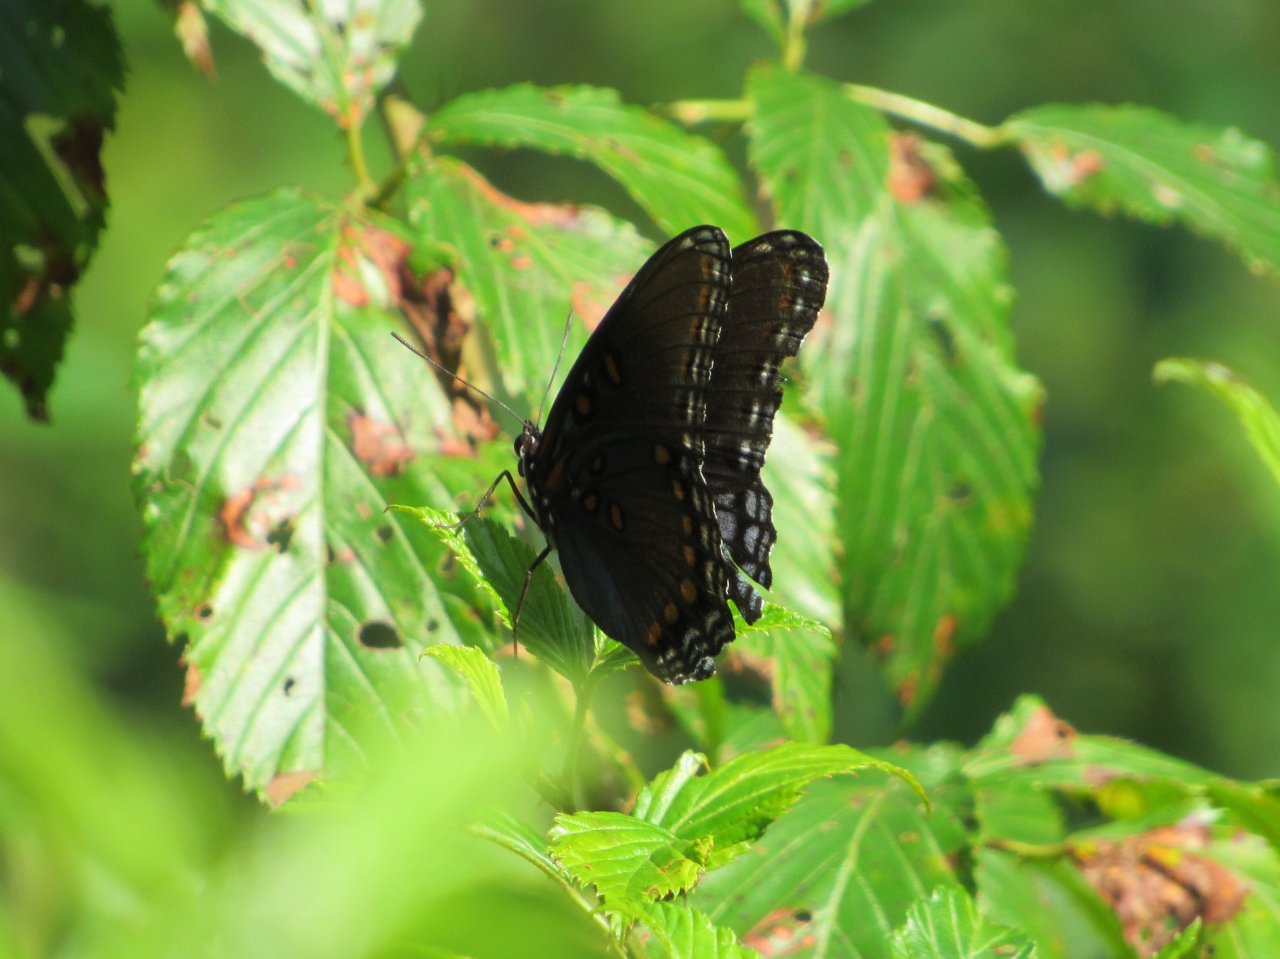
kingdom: Animalia
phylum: Arthropoda
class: Insecta
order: Lepidoptera
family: Nymphalidae
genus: Limenitis
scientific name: Limenitis astyanax
